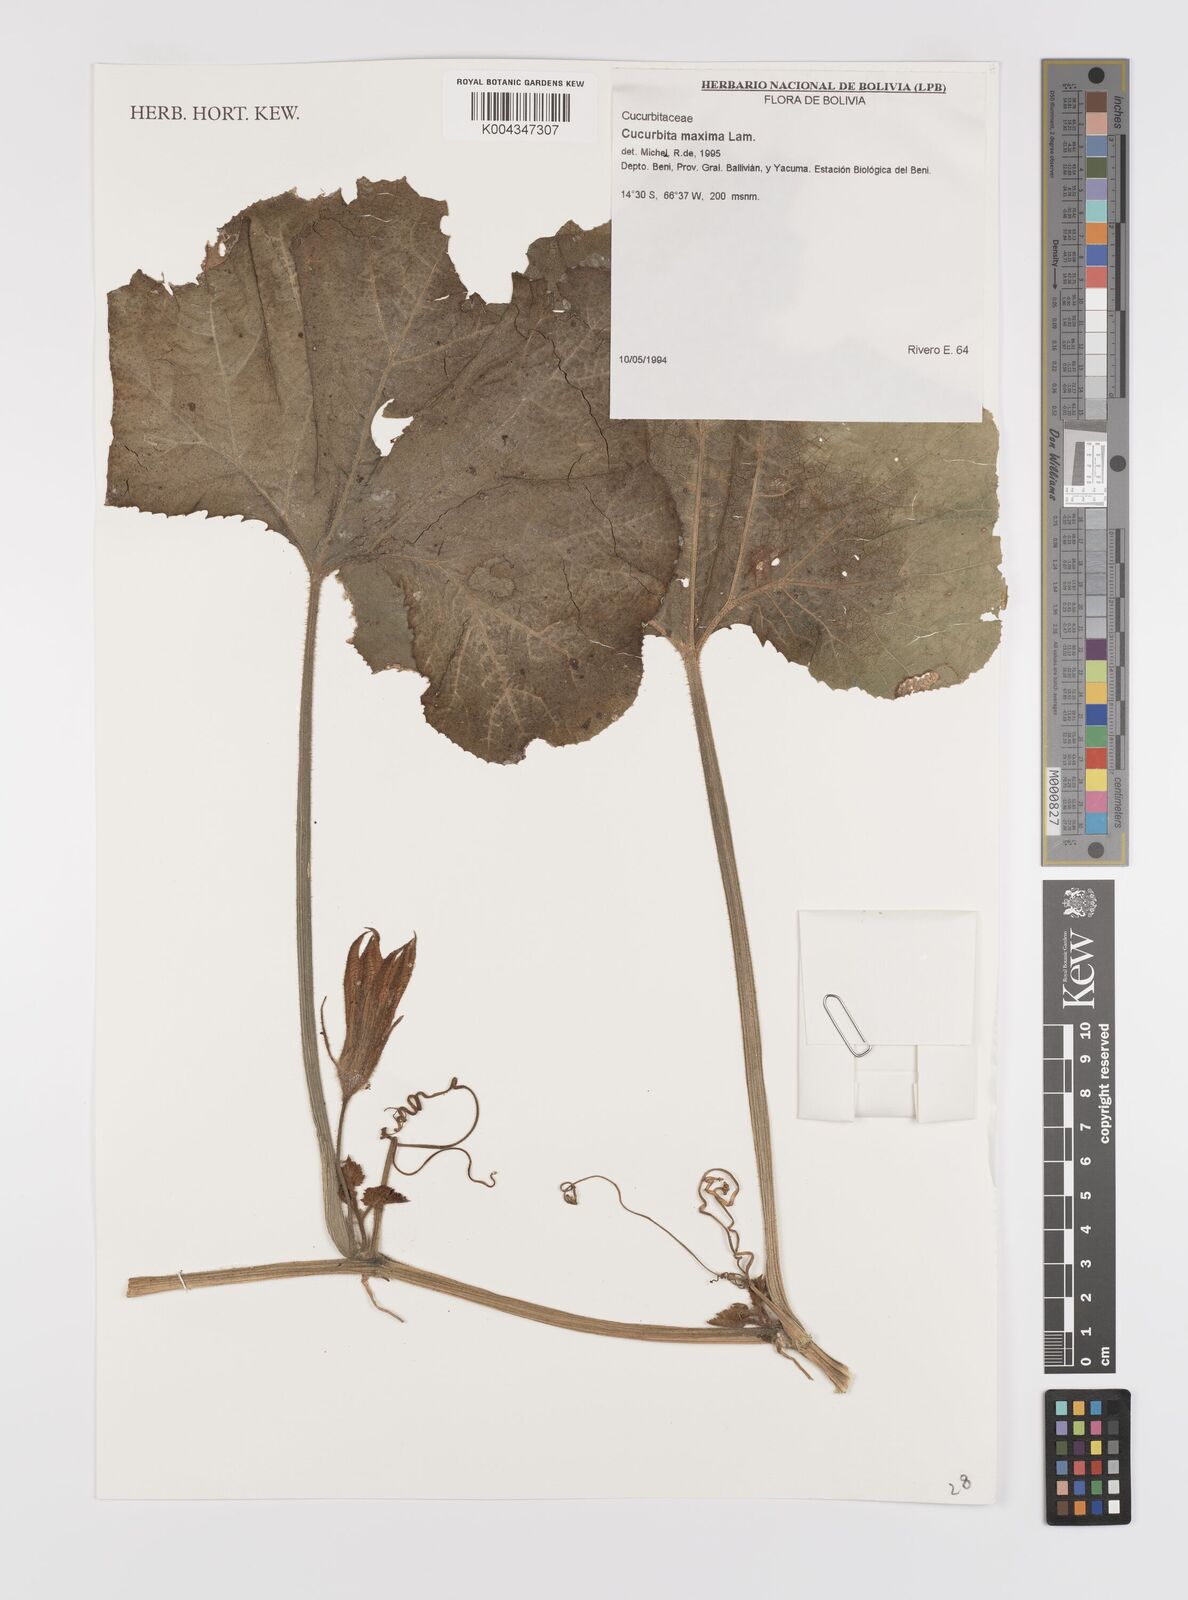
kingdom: Plantae
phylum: Tracheophyta
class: Magnoliopsida
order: Cucurbitales
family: Cucurbitaceae
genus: Cucurbita
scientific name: Cucurbita maxima
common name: Pumpkin
